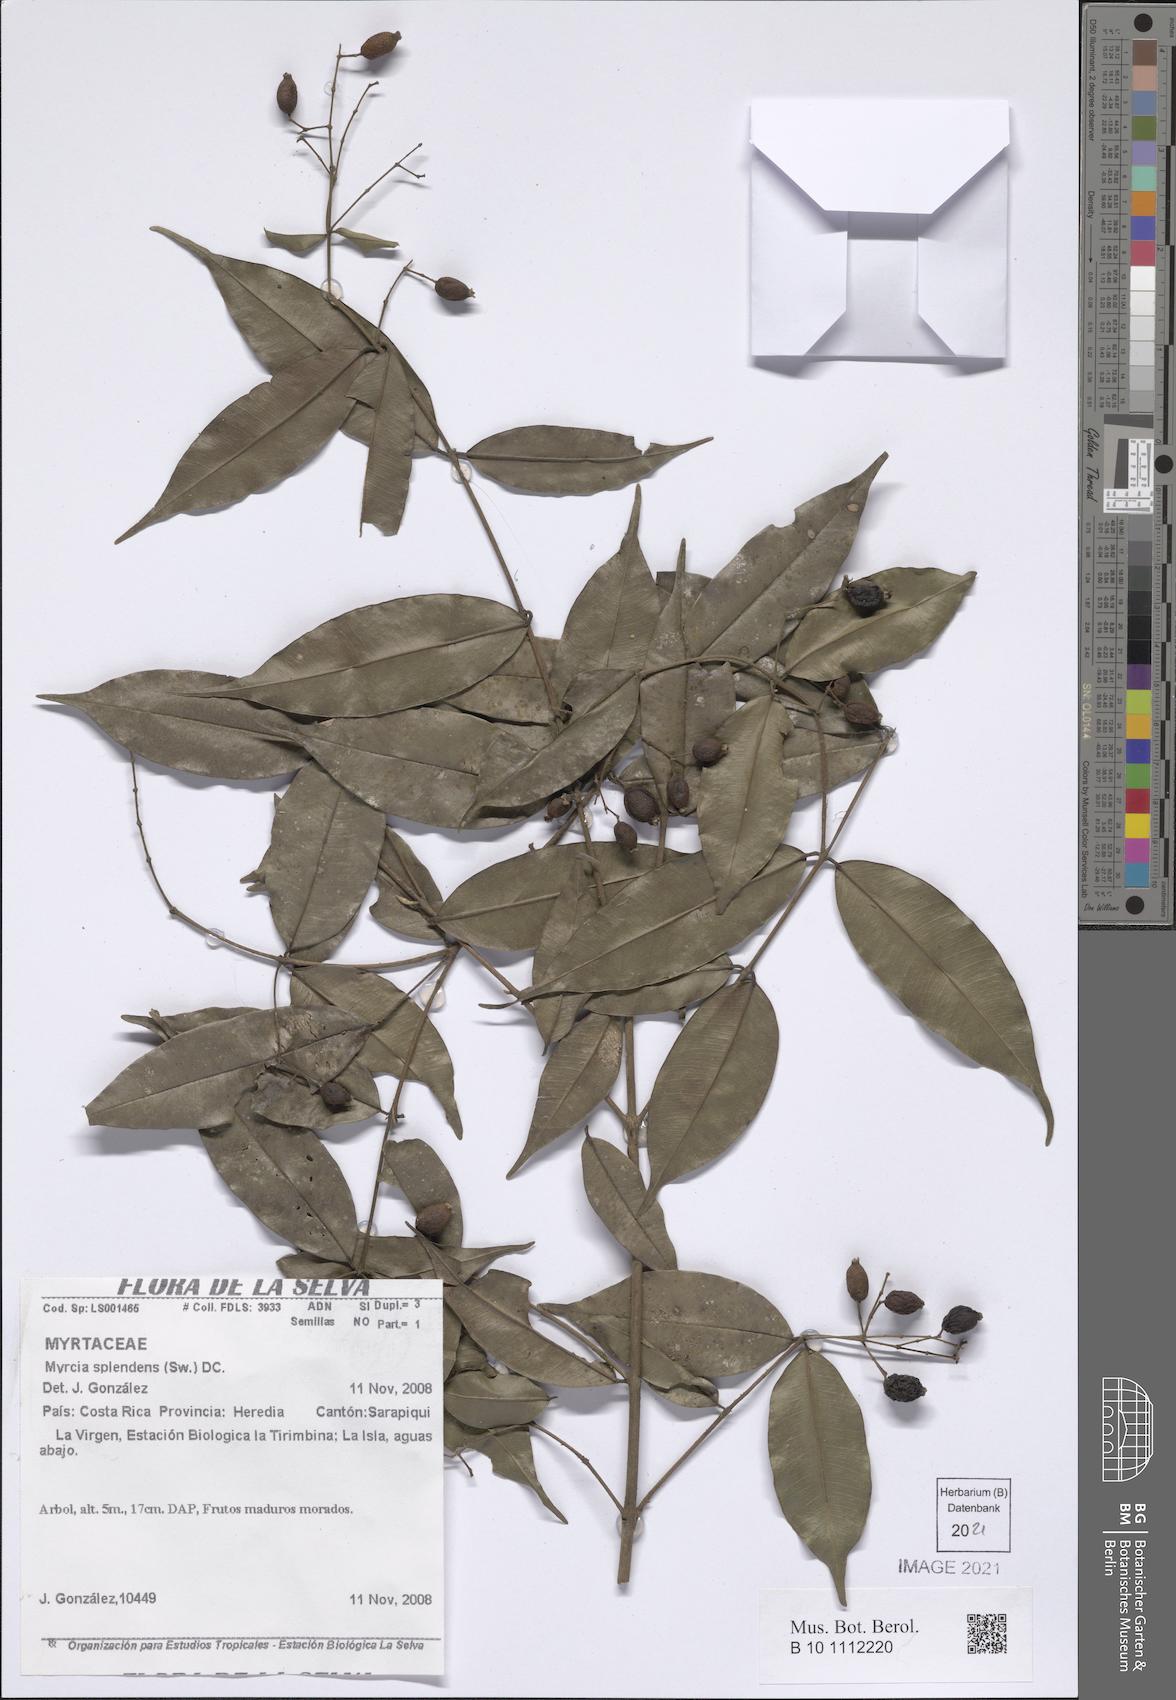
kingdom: Plantae
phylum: Tracheophyta
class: Magnoliopsida
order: Myrtales
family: Myrtaceae
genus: Myrcia
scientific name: Myrcia splendens
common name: Surinam cherry
